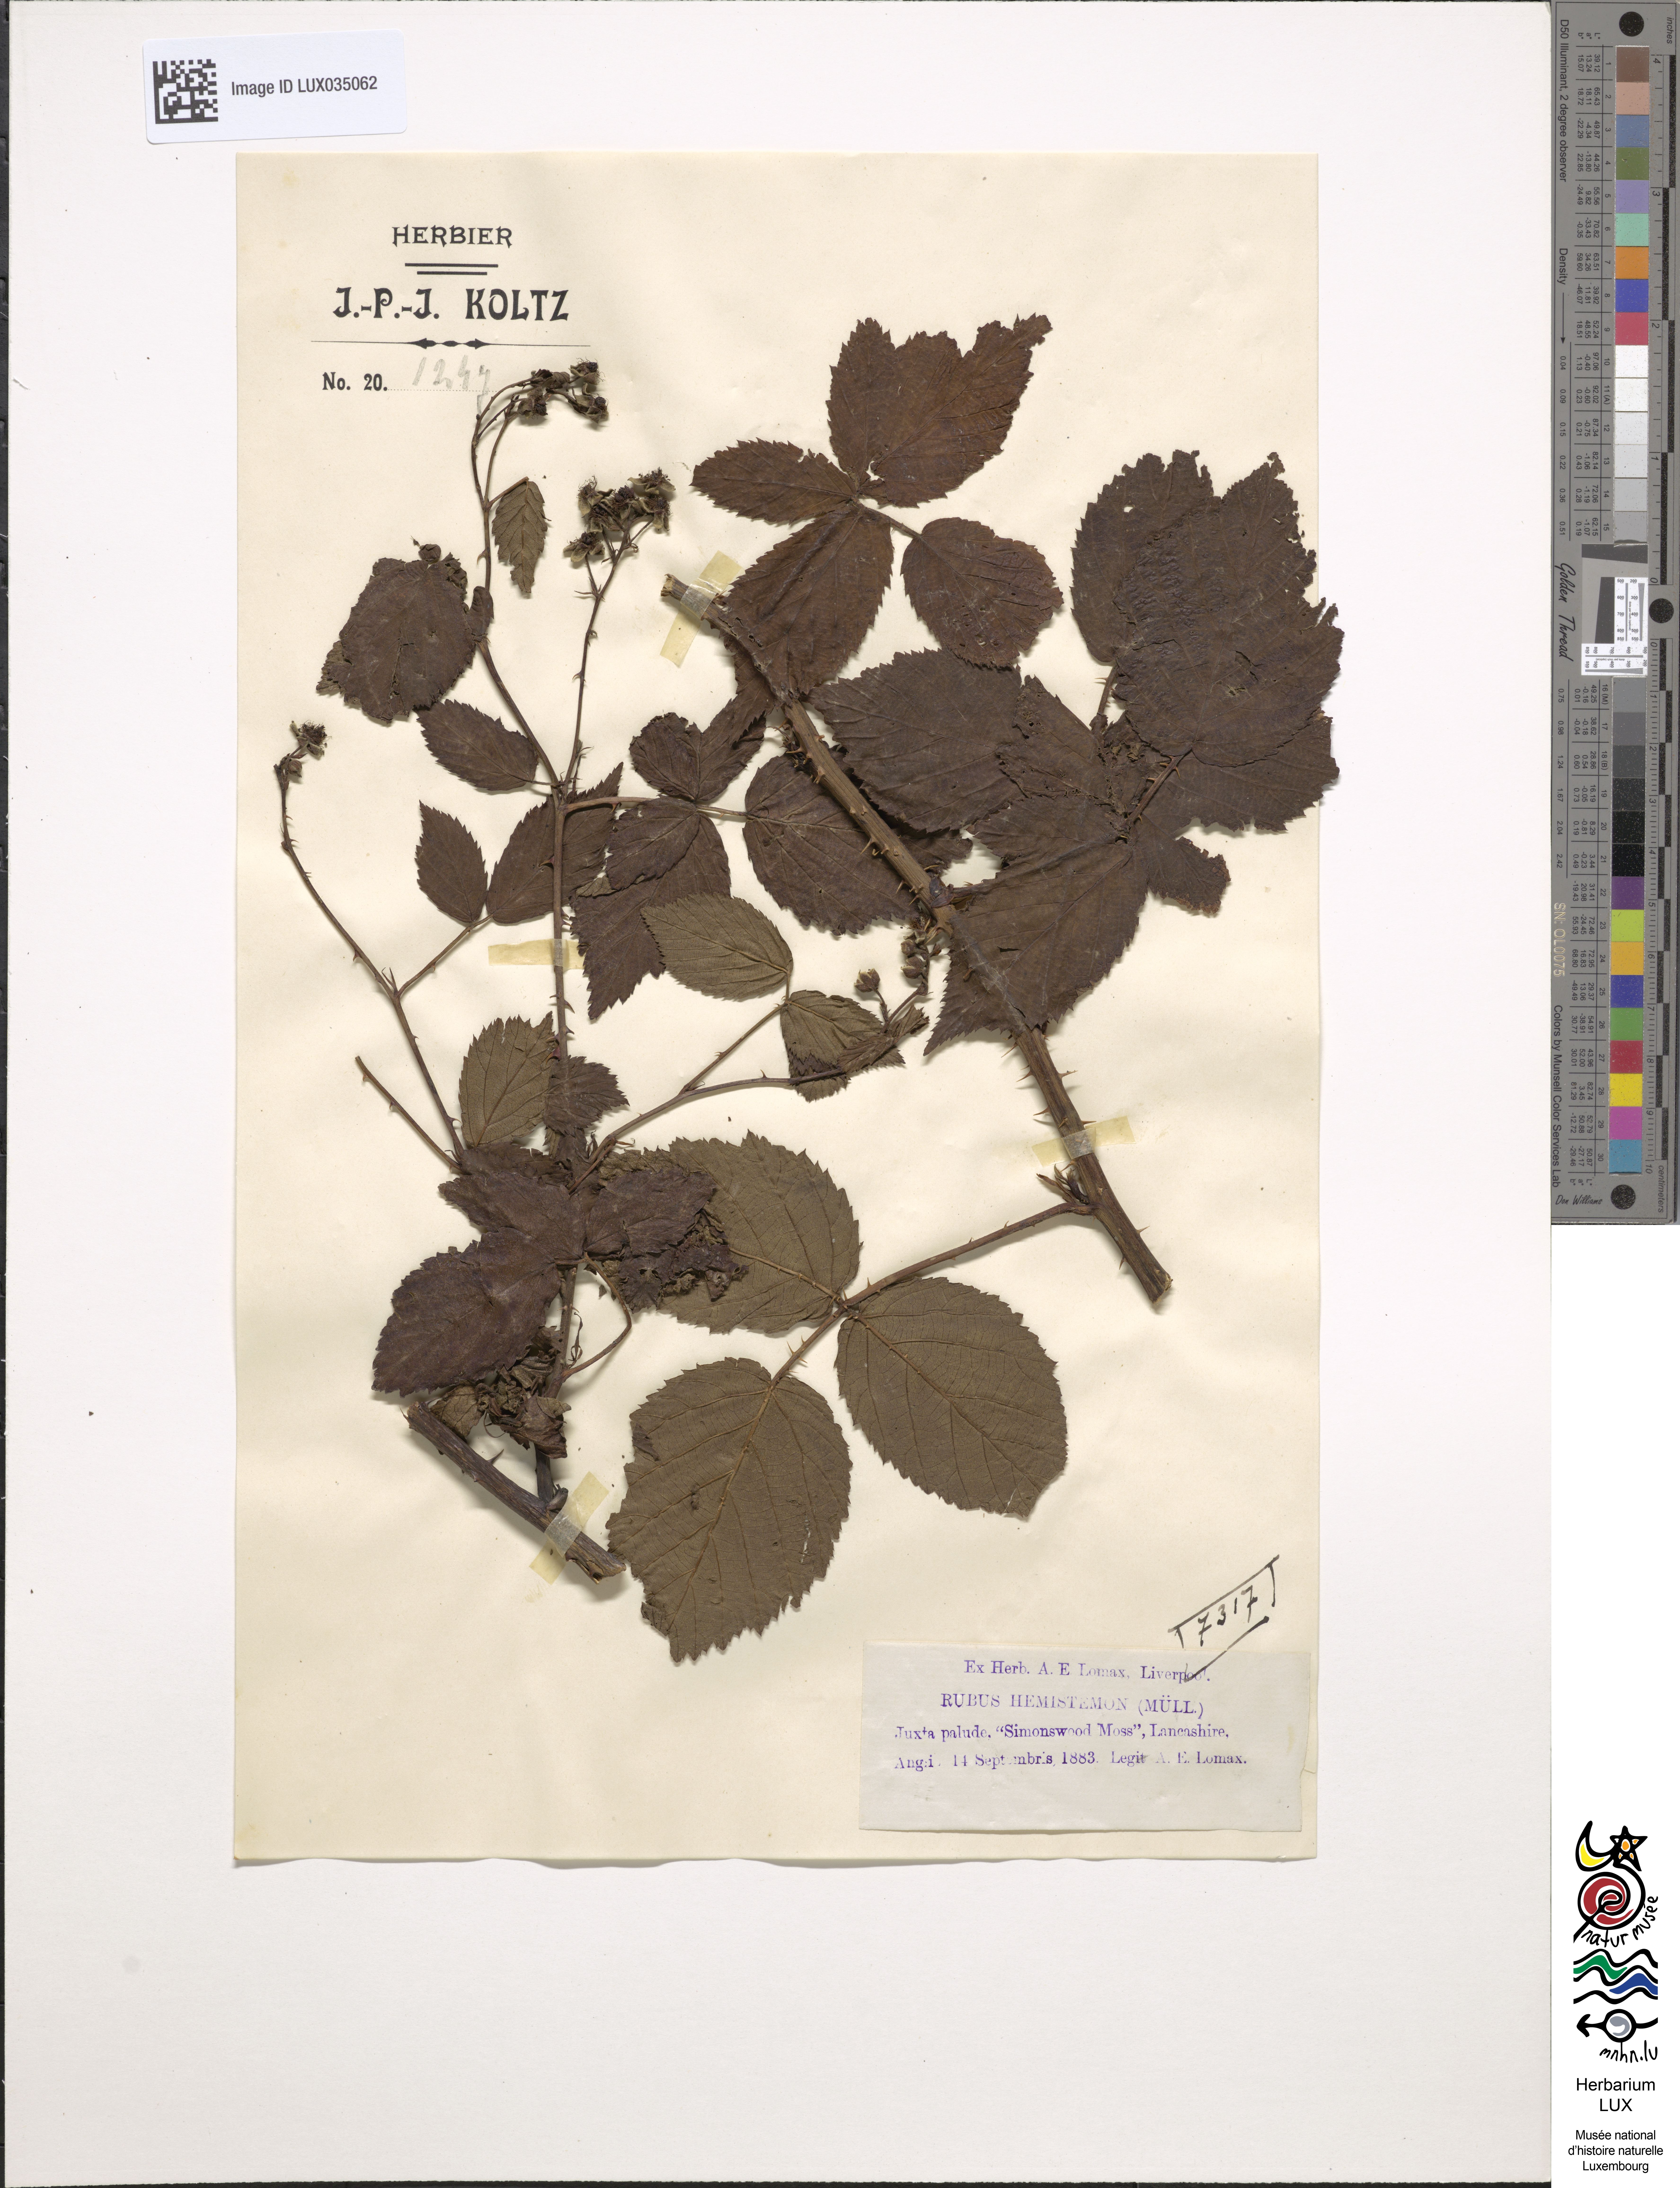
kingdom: Plantae
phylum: Tracheophyta
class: Magnoliopsida
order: Rosales
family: Rosaceae
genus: Rubus
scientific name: Rubus sprengelii
